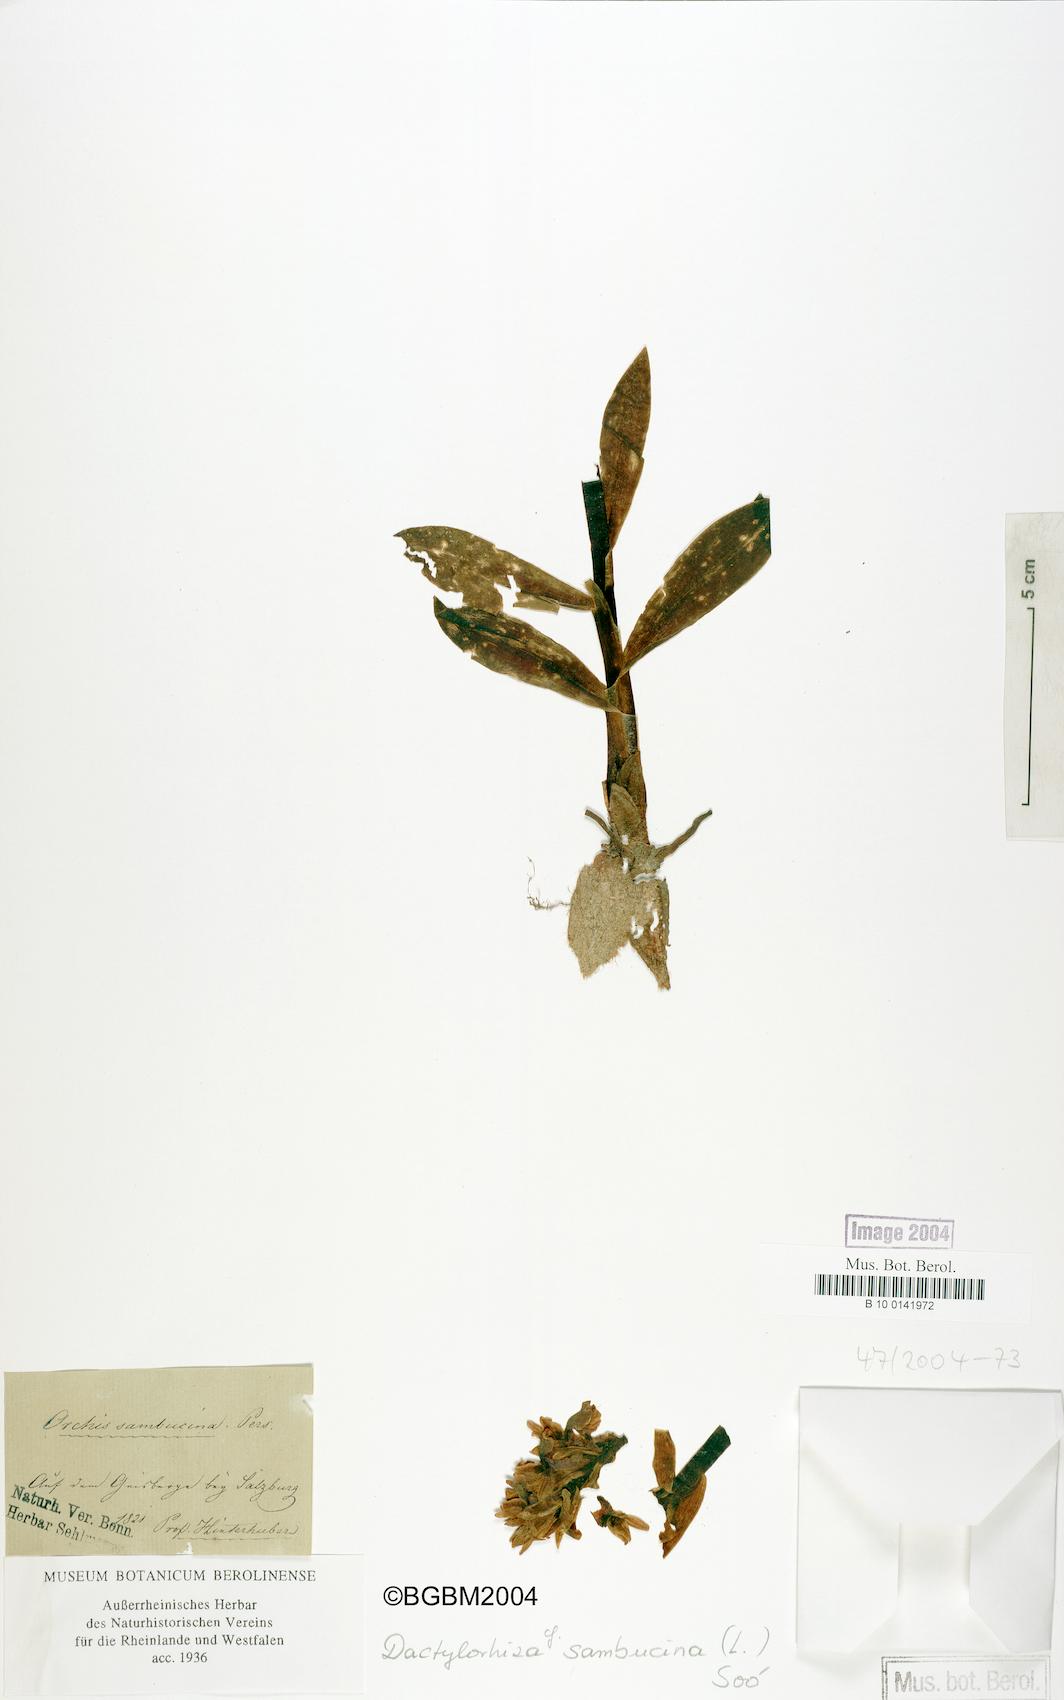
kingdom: Plantae
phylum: Tracheophyta
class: Liliopsida
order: Asparagales
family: Orchidaceae
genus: Dactylorhiza
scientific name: Dactylorhiza sambucina
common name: Elder-flowered orchid
